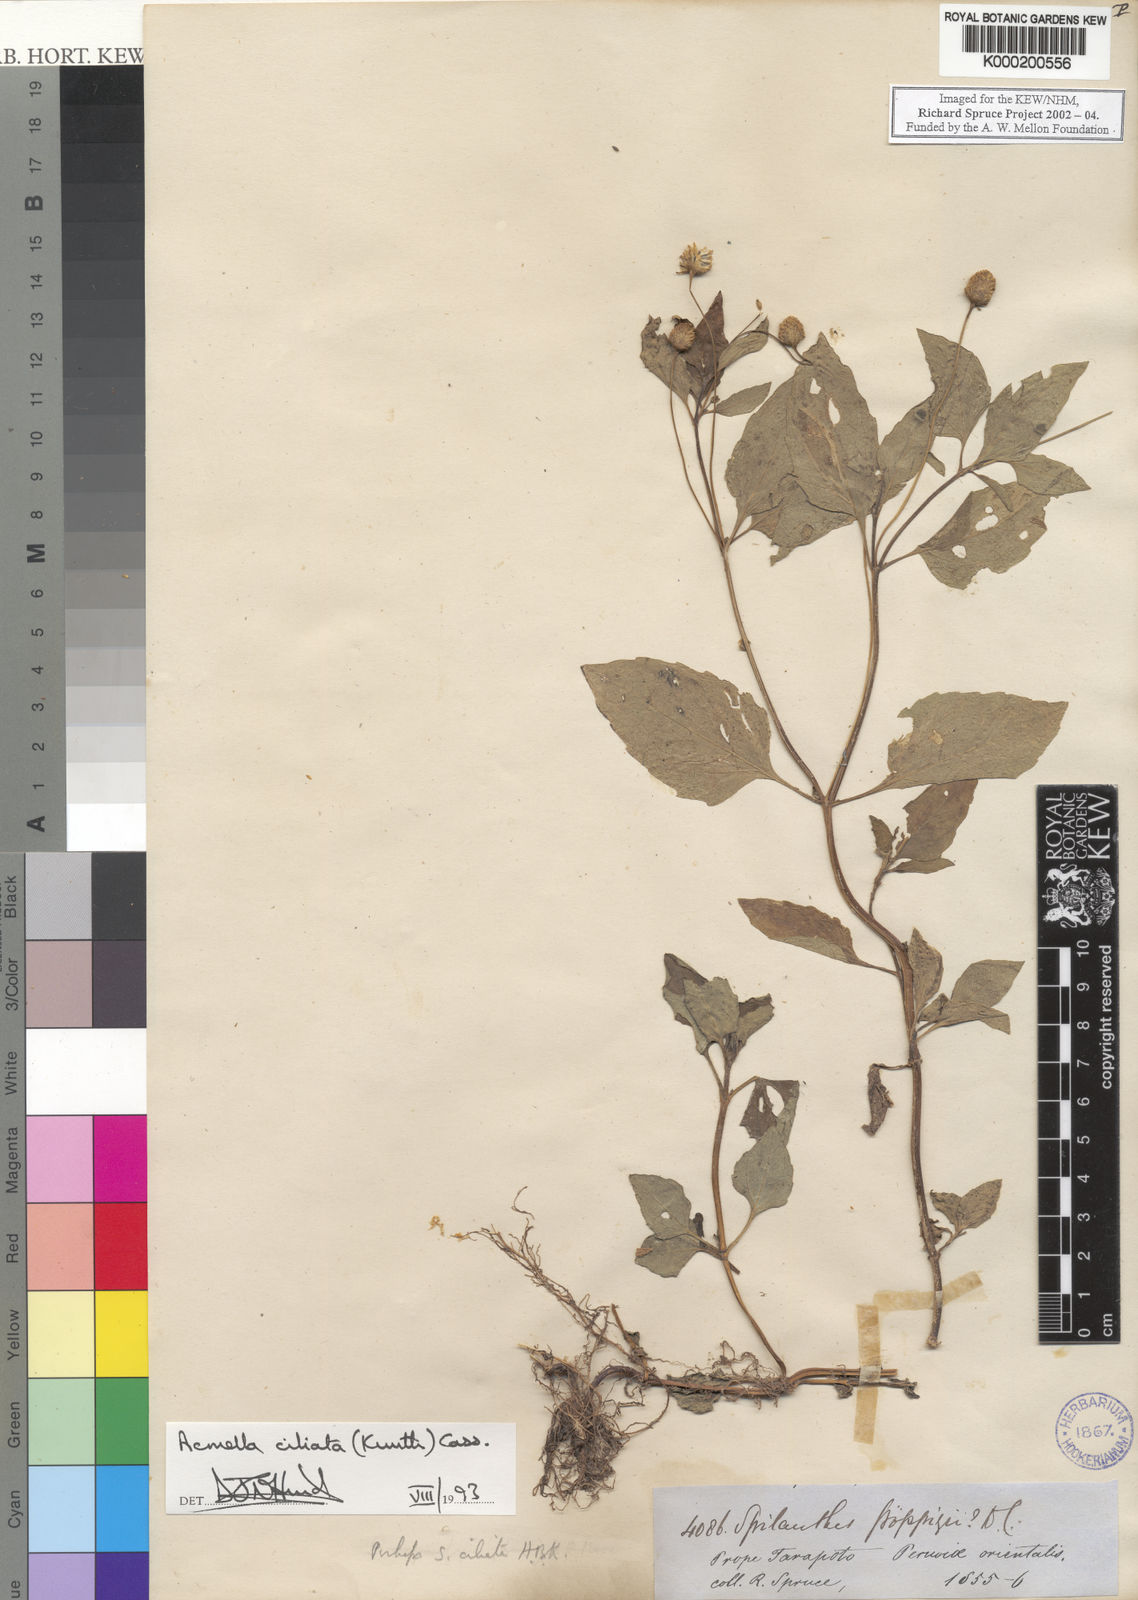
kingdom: Plantae
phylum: Tracheophyta
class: Magnoliopsida
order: Asterales
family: Asteraceae
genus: Acmella
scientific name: Acmella ciliata
